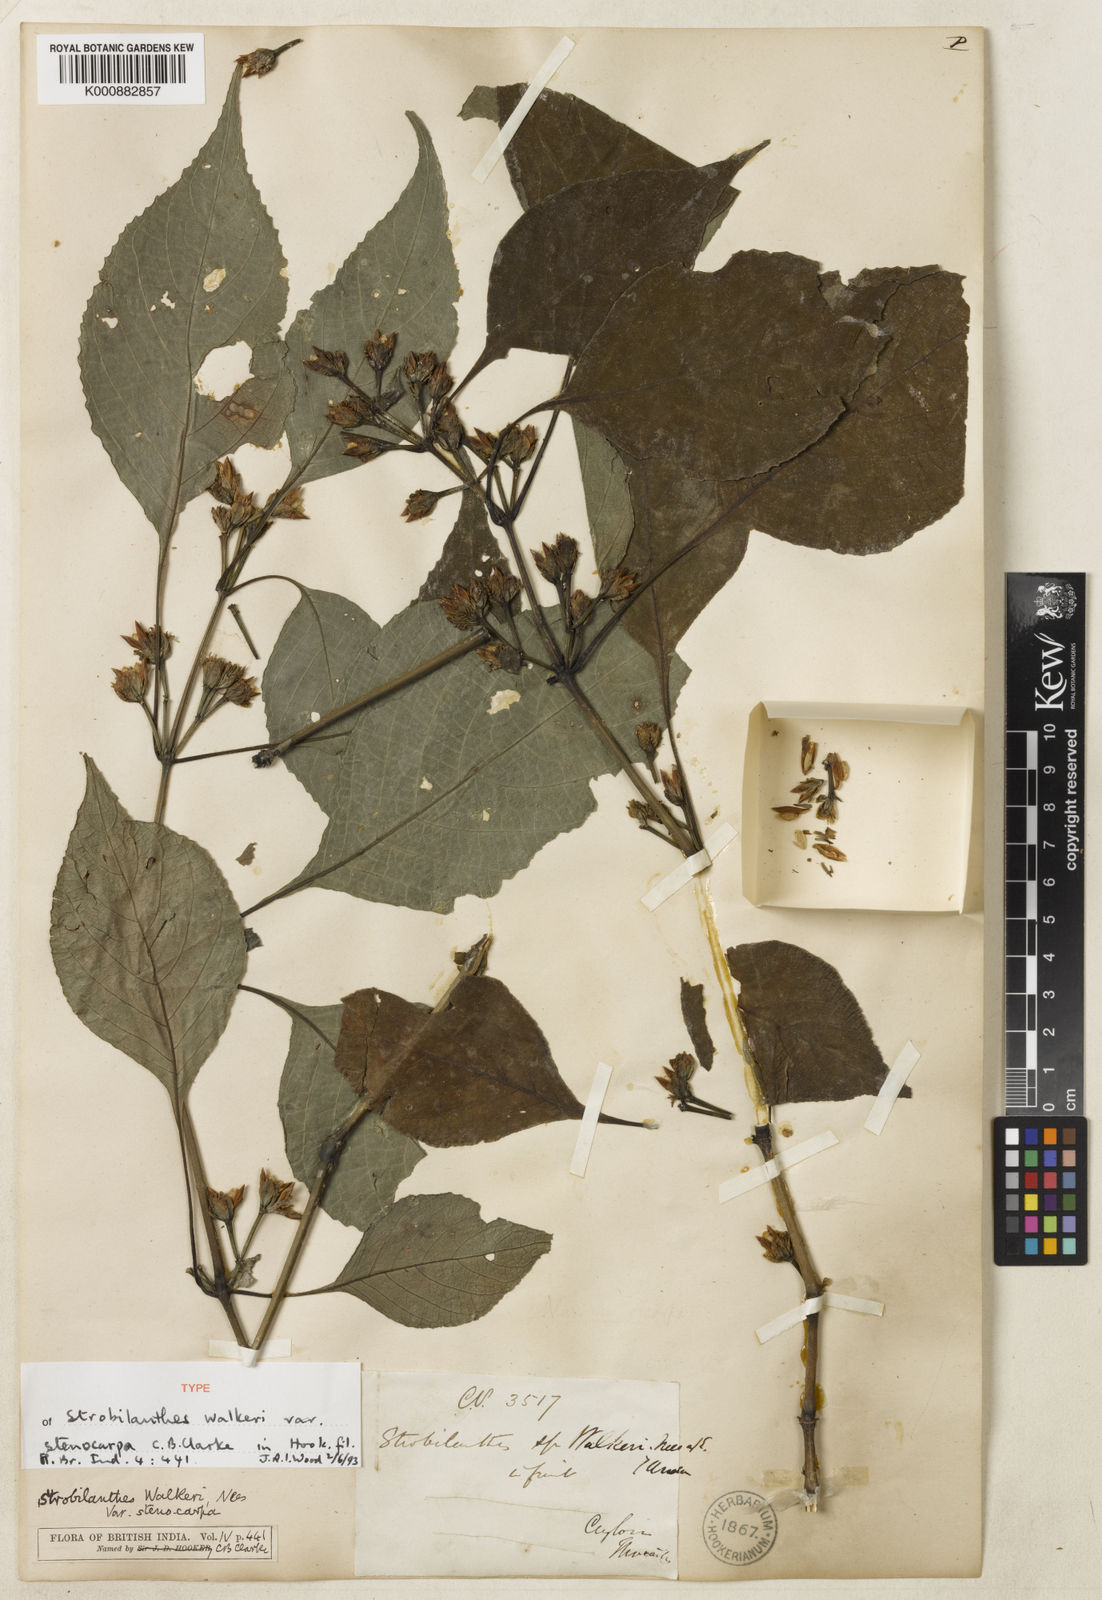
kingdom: Plantae
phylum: Tracheophyta
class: Magnoliopsida
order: Lamiales
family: Acanthaceae
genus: Strobilanthes
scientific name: Strobilanthes walkeri
